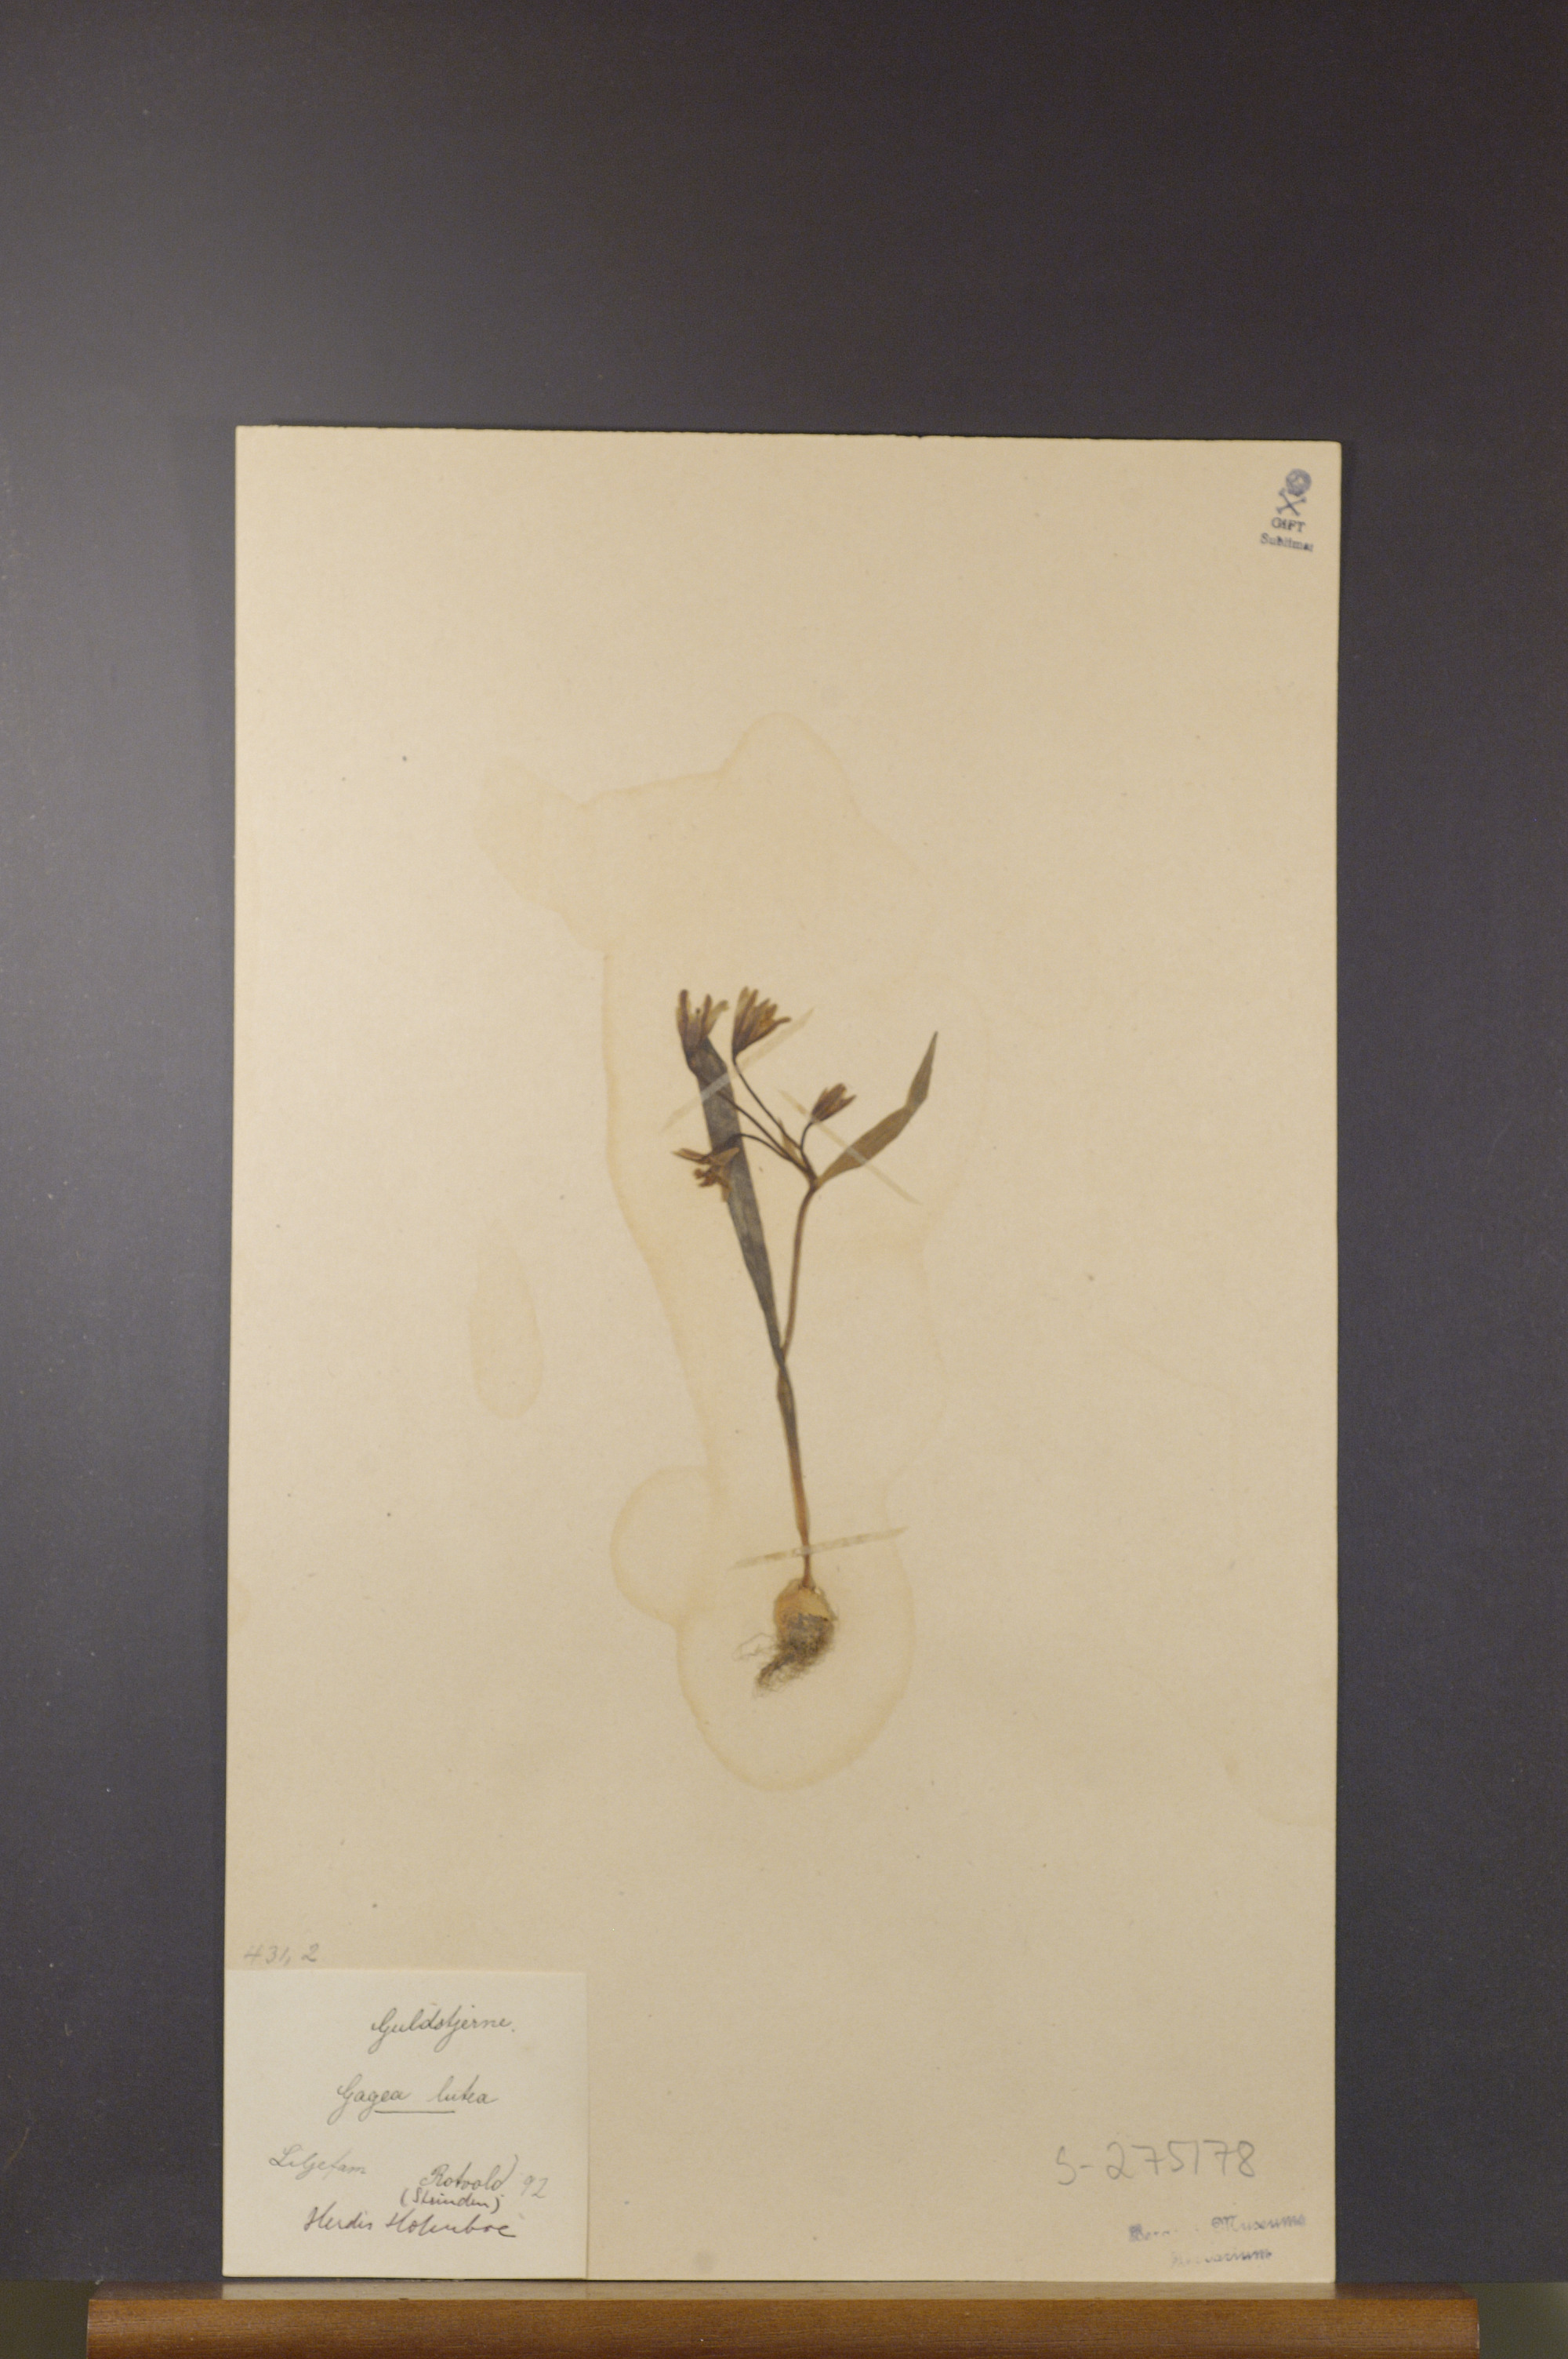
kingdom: Plantae
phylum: Tracheophyta
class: Liliopsida
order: Liliales
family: Liliaceae
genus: Gagea
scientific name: Gagea lutea
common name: Yellow star-of-bethlehem
